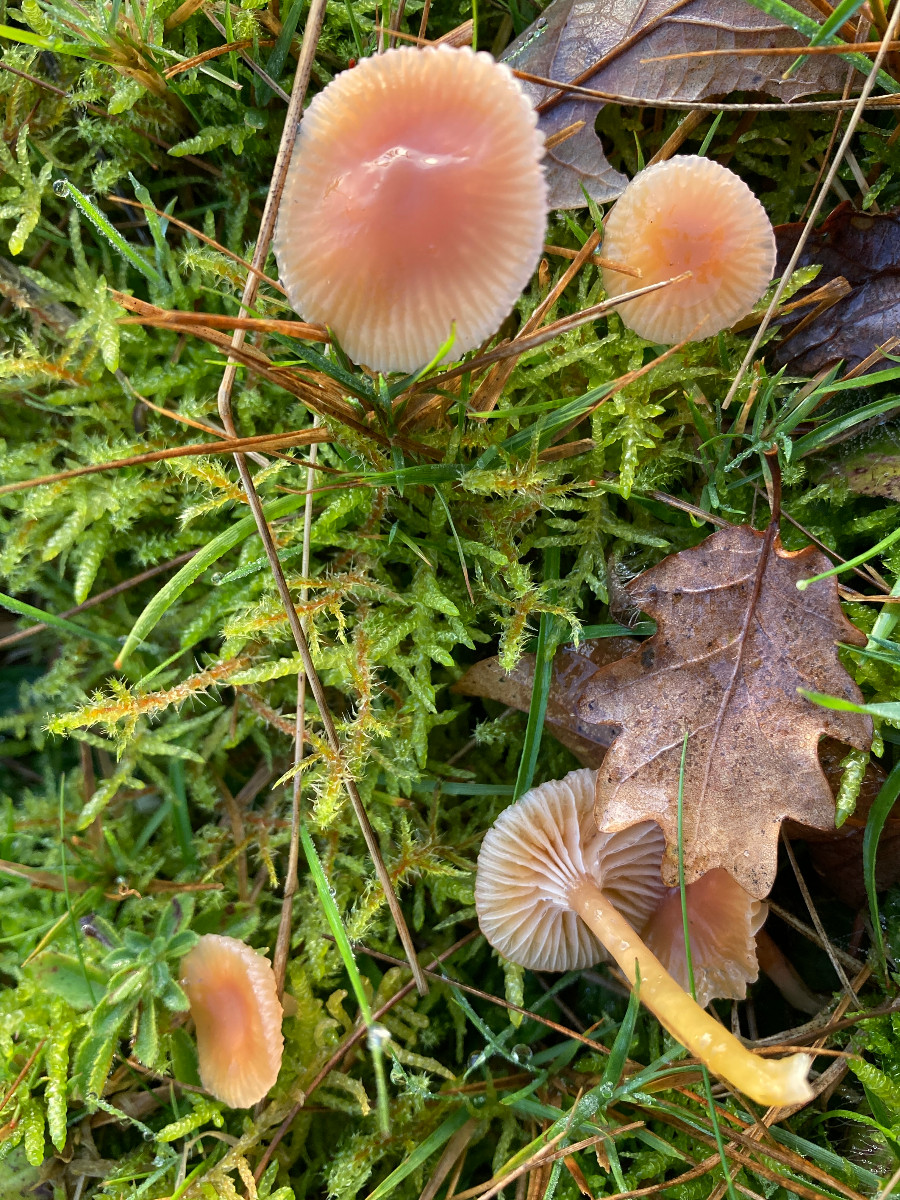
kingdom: Fungi
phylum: Basidiomycota
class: Agaricomycetes
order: Agaricales
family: Hygrophoraceae
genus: Gliophorus
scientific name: Gliophorus laetus
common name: brusk-vokshat
